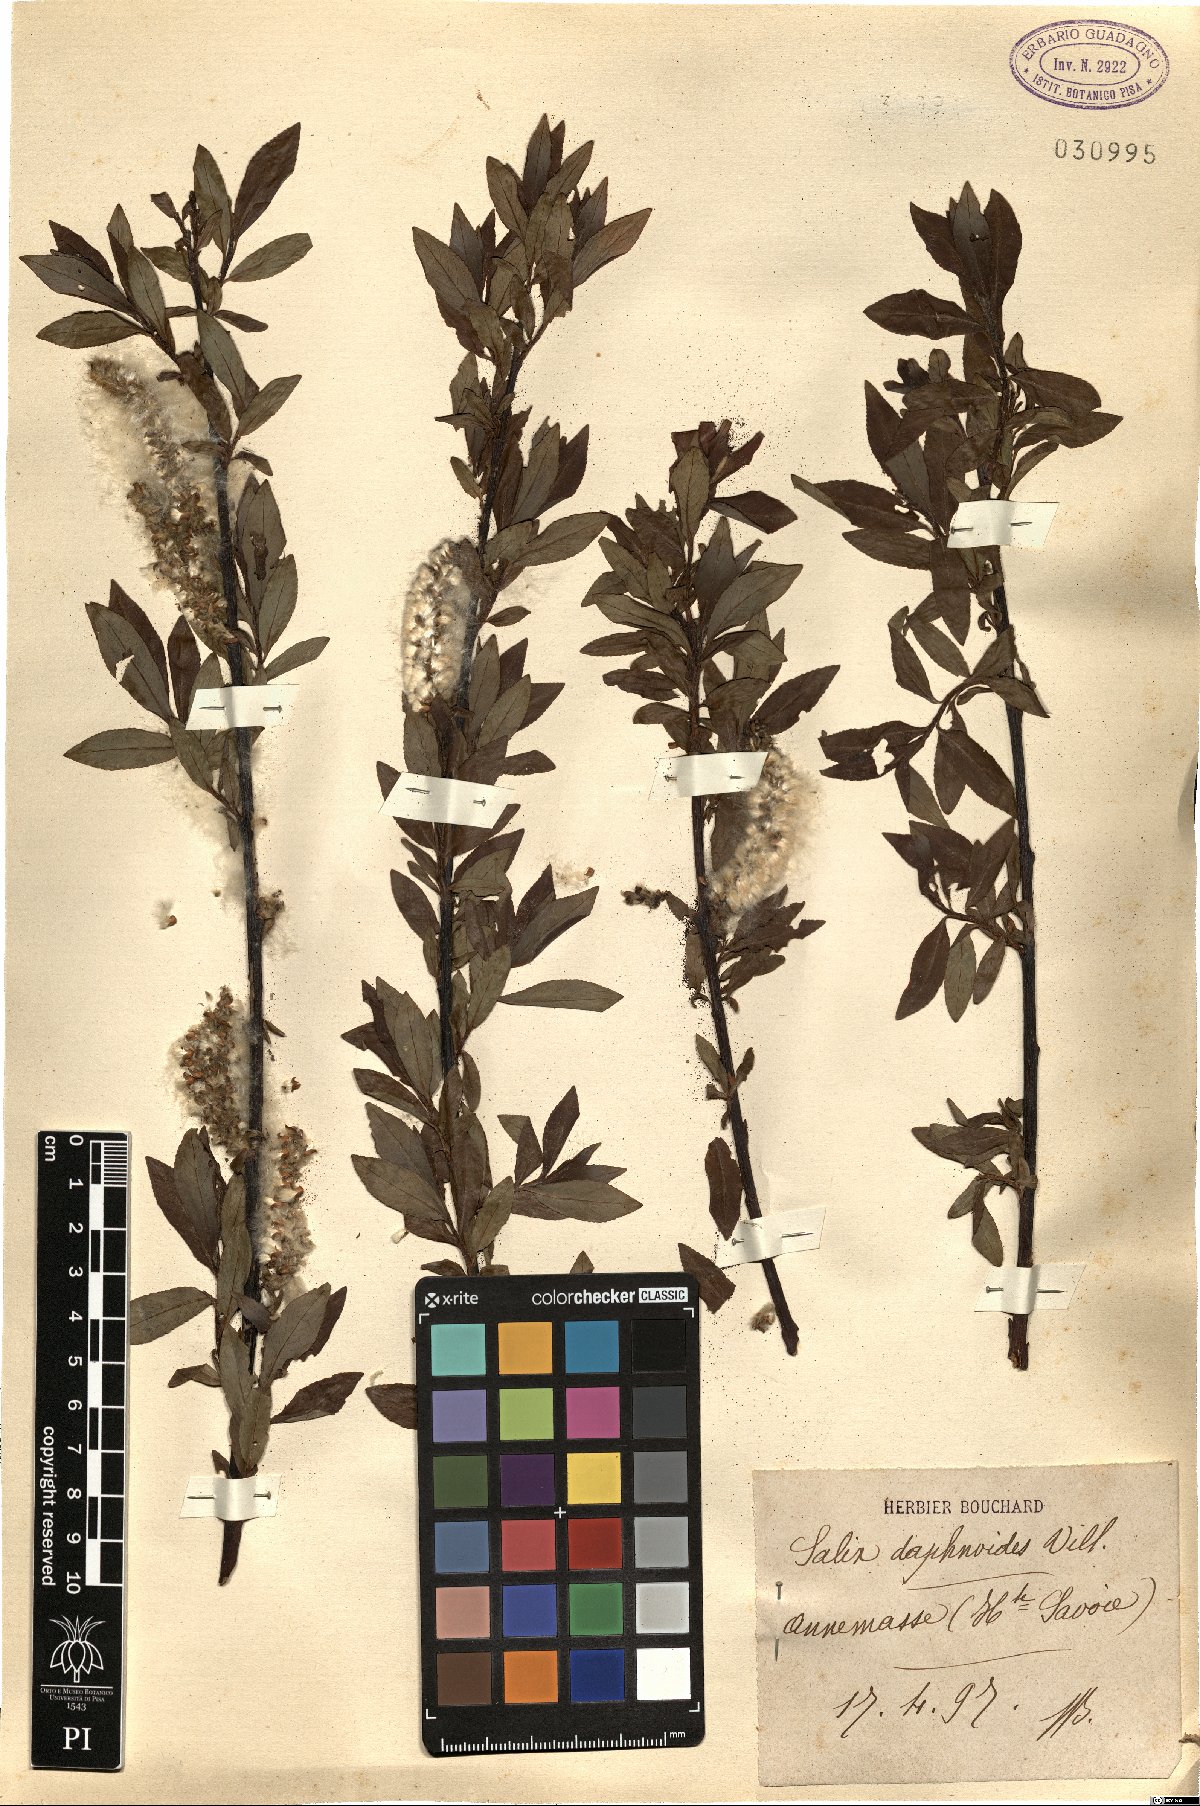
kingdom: Plantae
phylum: Tracheophyta
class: Magnoliopsida
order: Malpighiales
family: Salicaceae
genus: Salix
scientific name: Salix daphnoides
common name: European violet-willow
